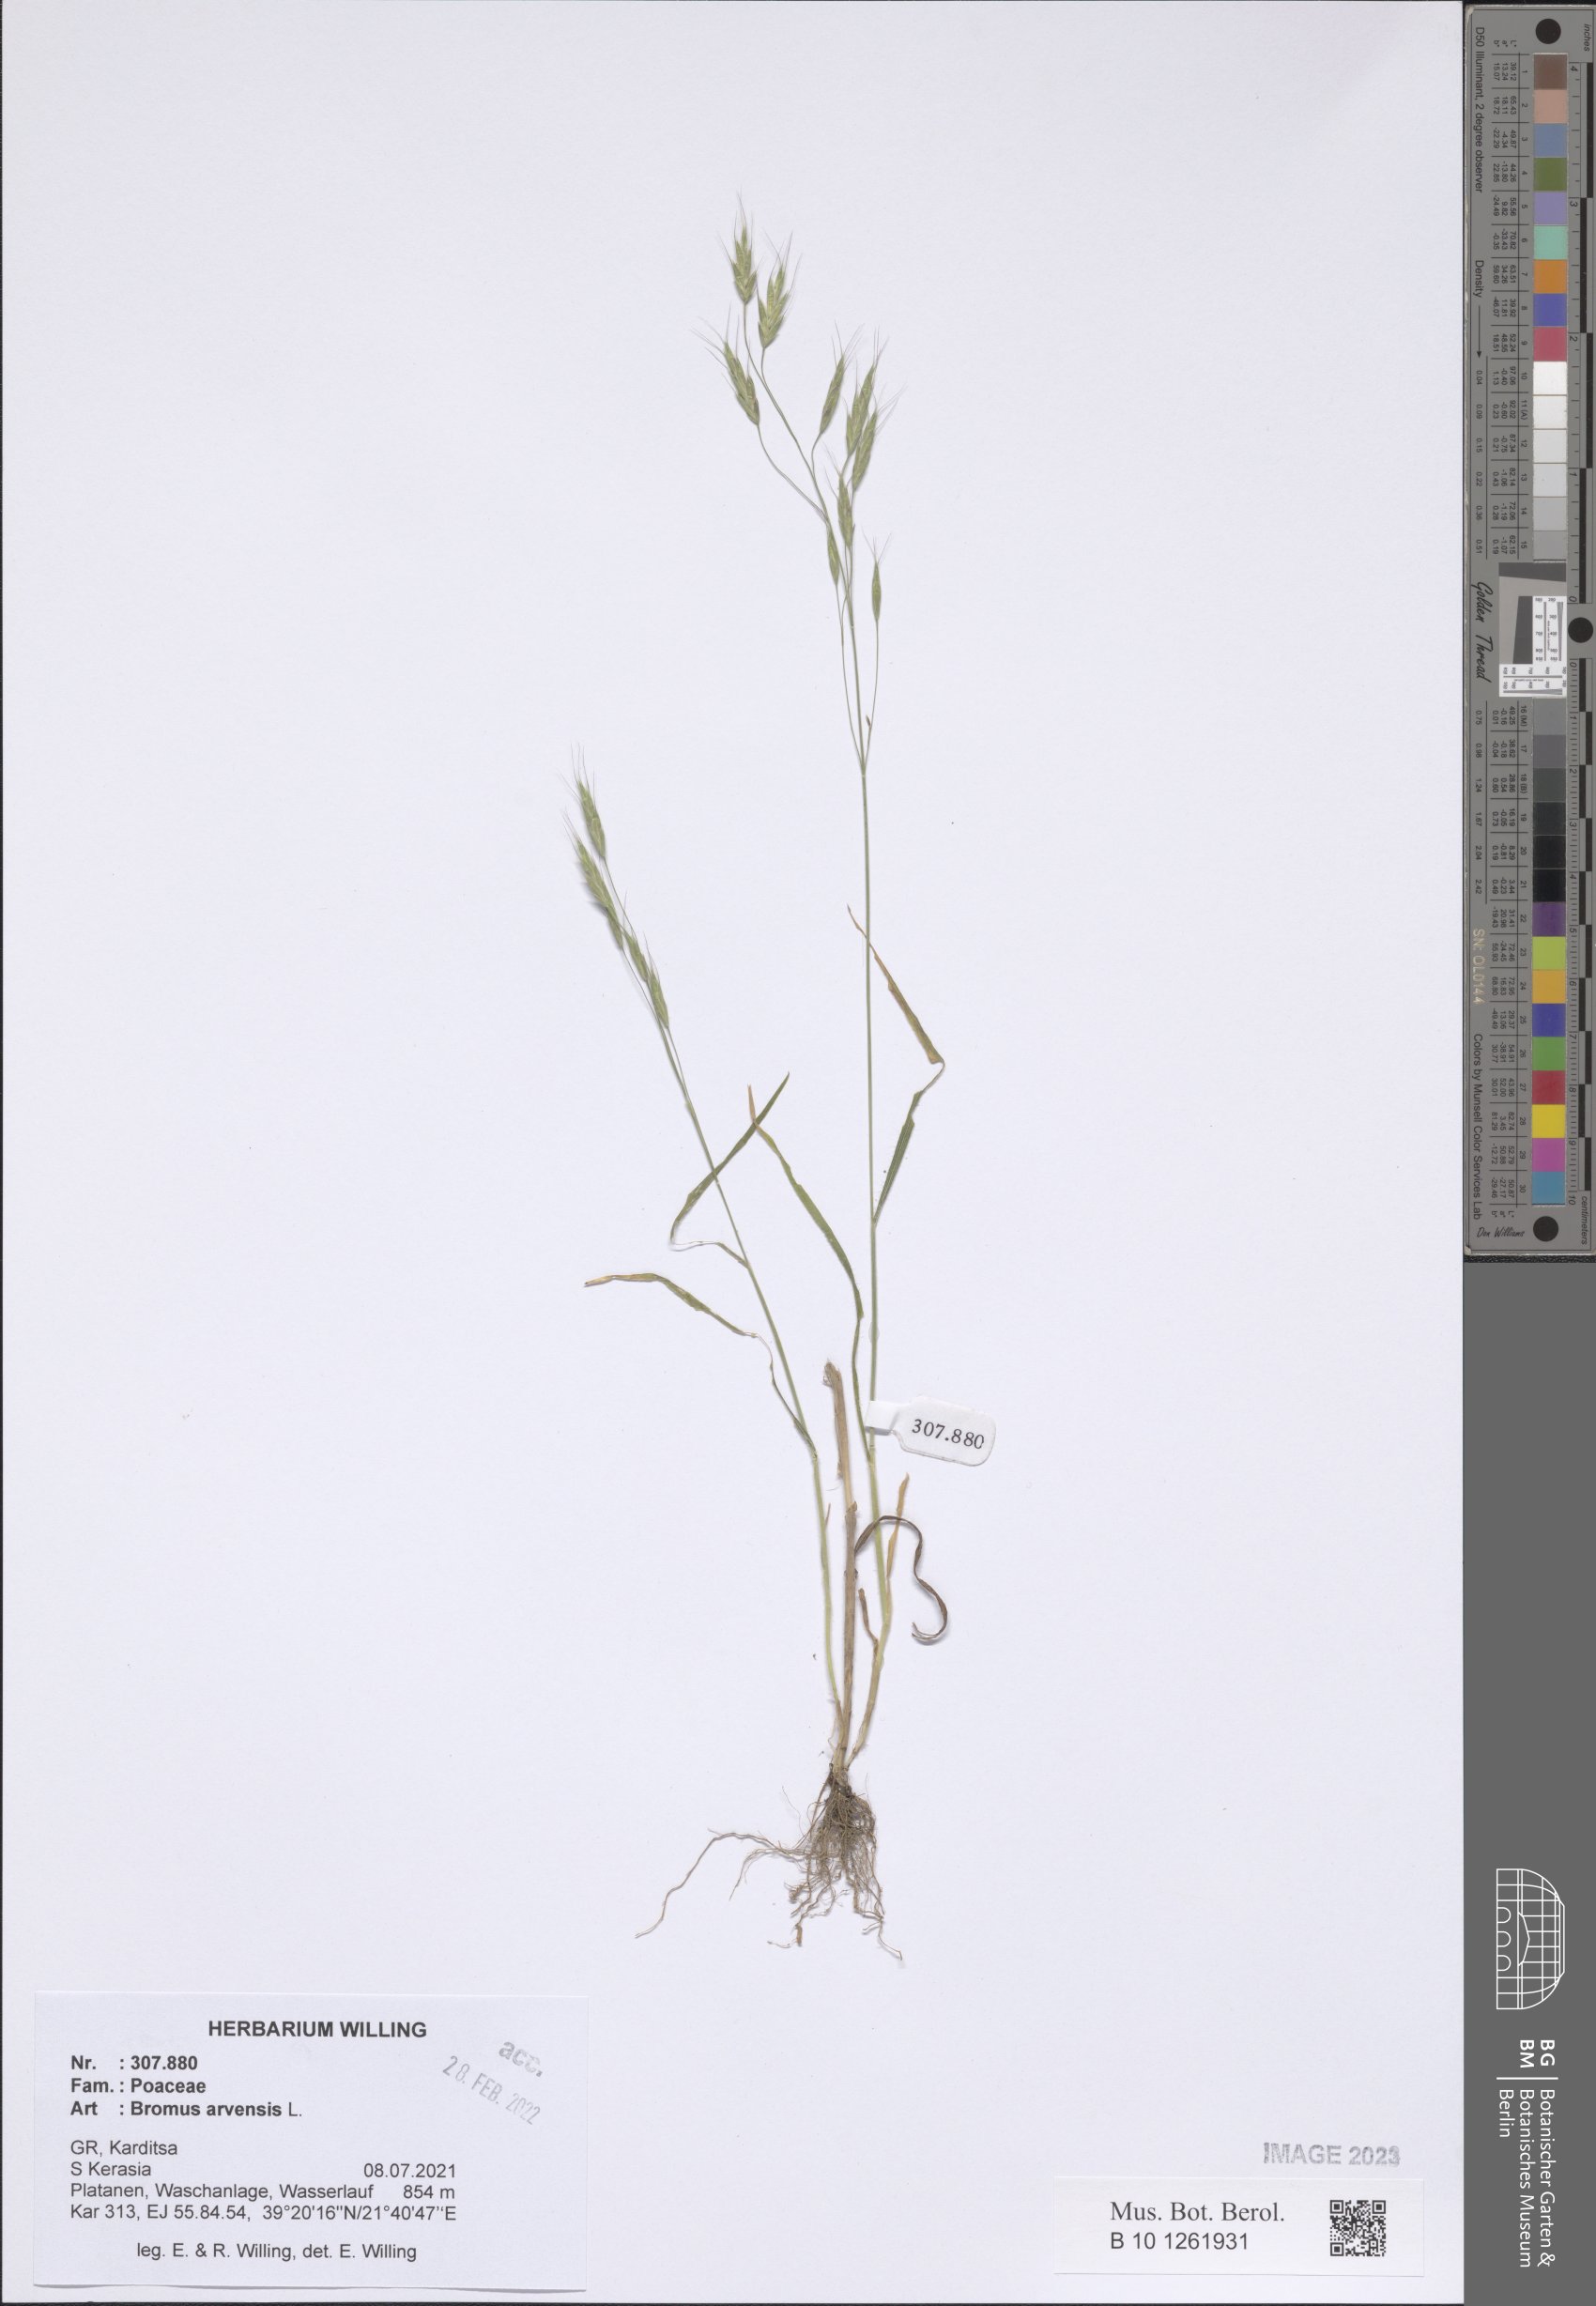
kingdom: Plantae
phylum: Tracheophyta
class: Liliopsida
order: Poales
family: Poaceae
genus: Bromus
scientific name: Bromus arvensis
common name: Field brome
